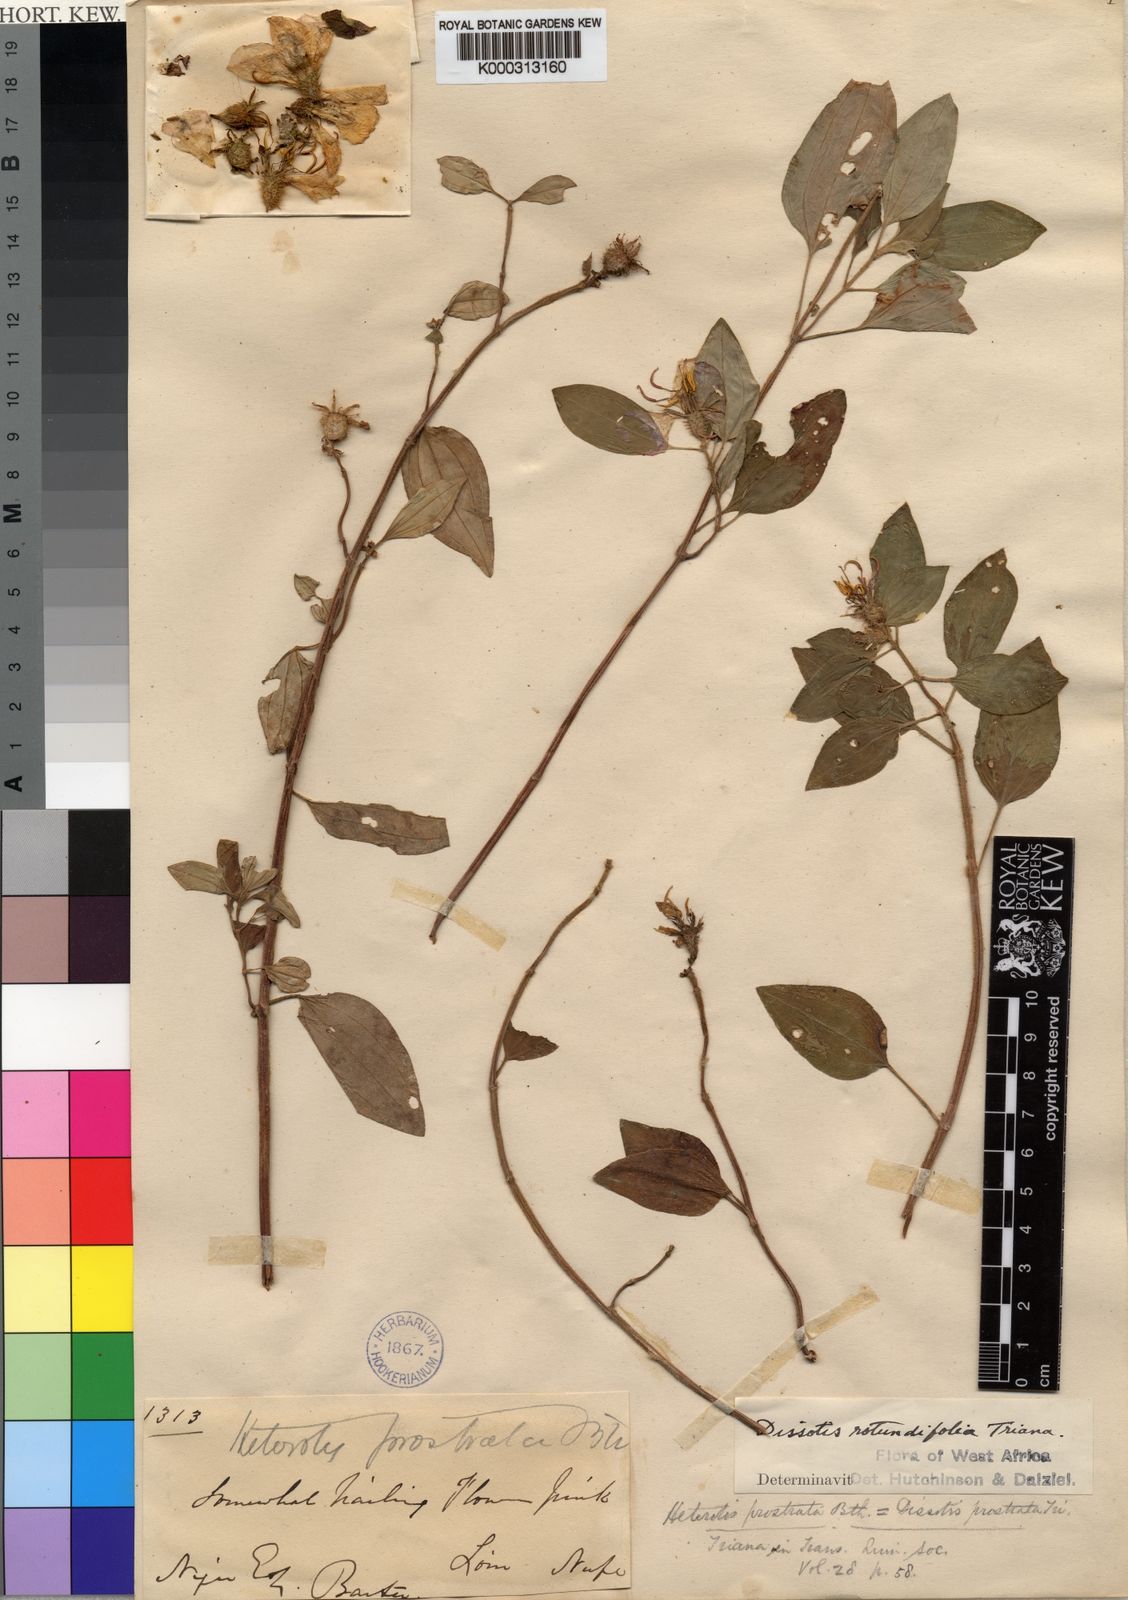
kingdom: Plantae
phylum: Tracheophyta
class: Magnoliopsida
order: Myrtales
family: Melastomataceae
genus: Heterotis
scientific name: Heterotis
